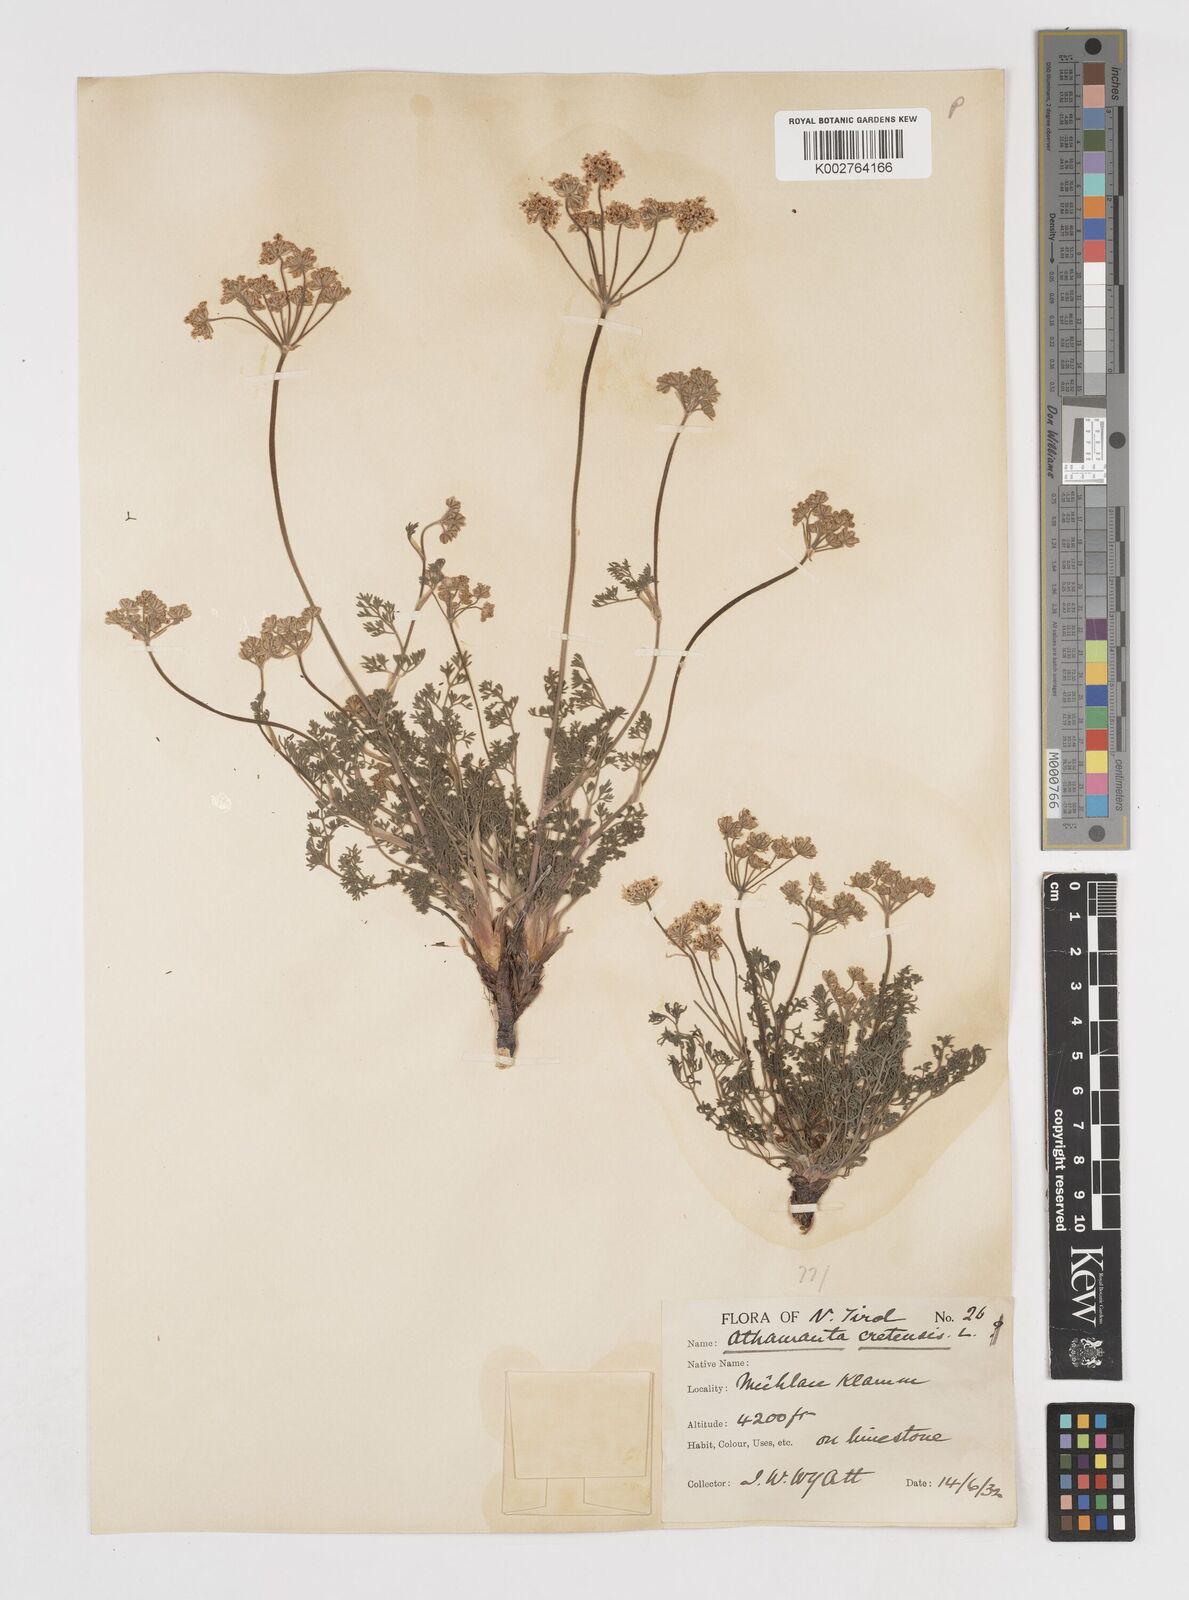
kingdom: Plantae
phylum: Tracheophyta
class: Magnoliopsida
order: Apiales
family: Apiaceae
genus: Athamanta
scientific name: Athamanta cretensis
